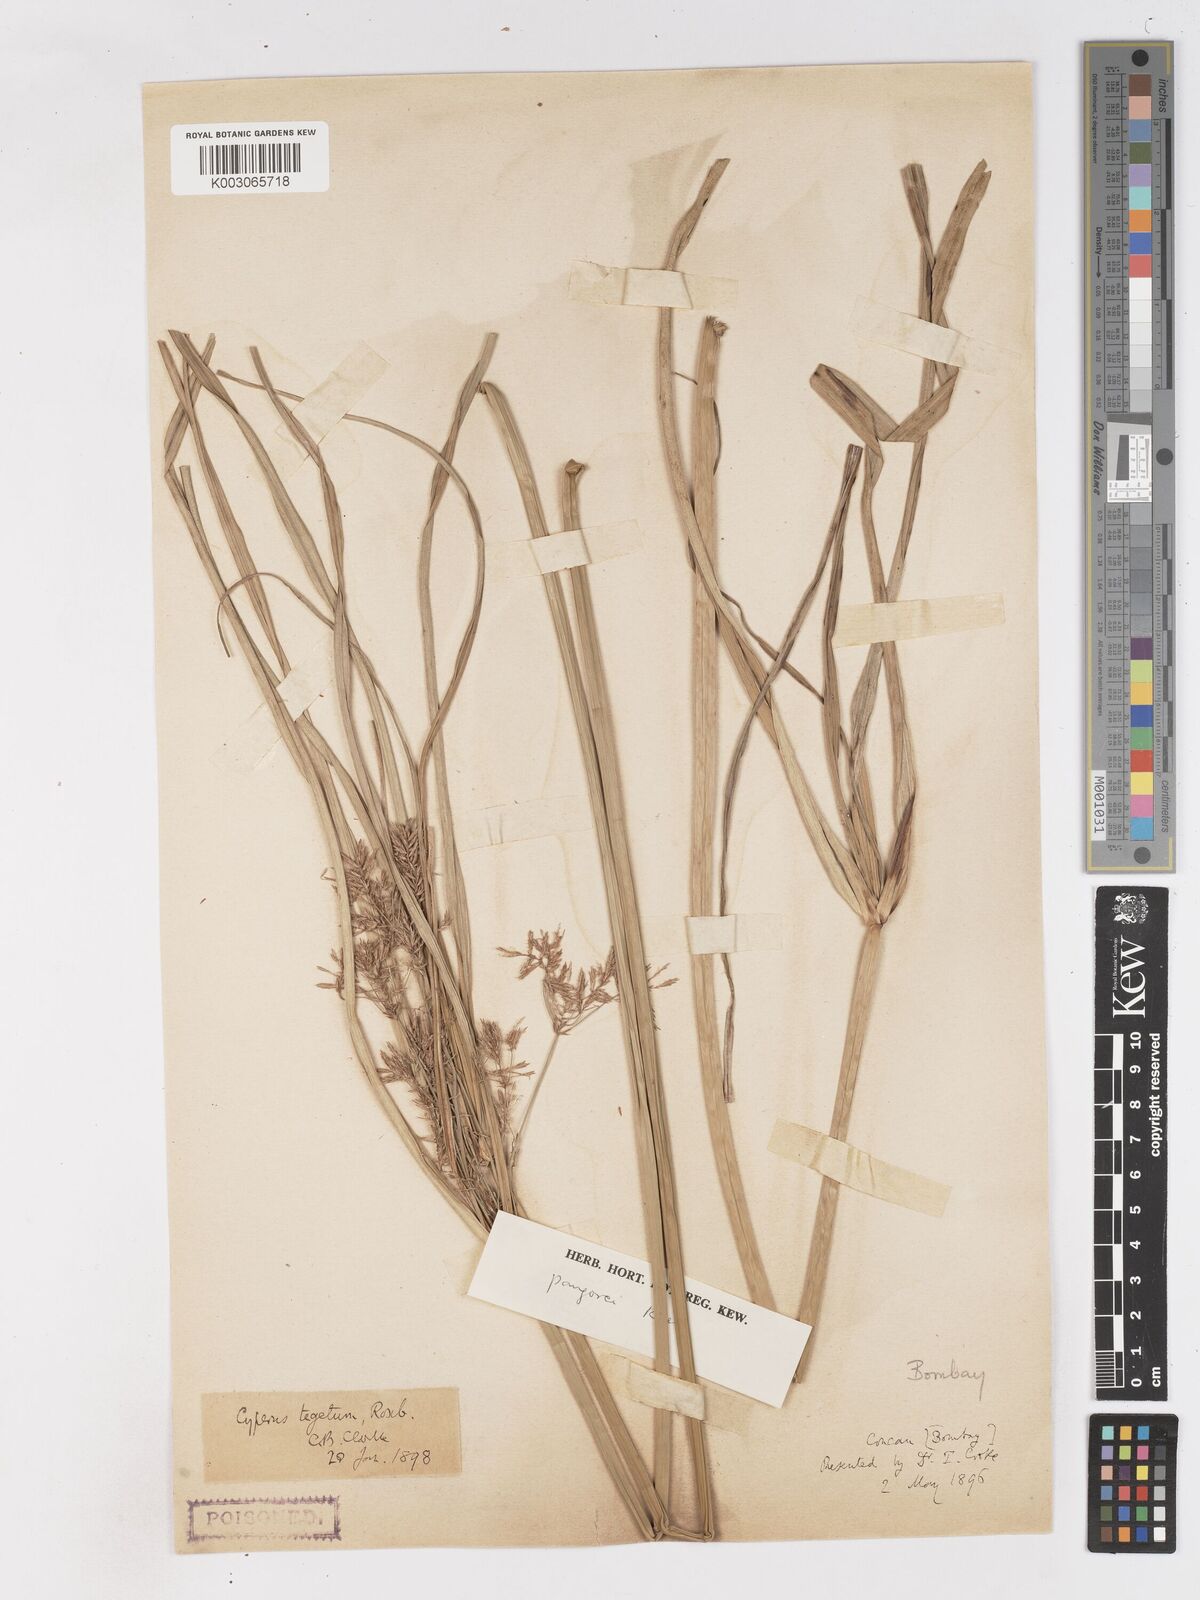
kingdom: Plantae
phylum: Tracheophyta
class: Liliopsida
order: Poales
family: Cyperaceae
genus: Cyperus
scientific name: Cyperus pangorei
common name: Mat sedge
